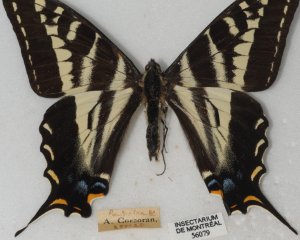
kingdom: Animalia
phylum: Arthropoda
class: Insecta
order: Lepidoptera
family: Papilionidae
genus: Pterourus
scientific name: Pterourus eurymedon
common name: Pale Swallowtail
